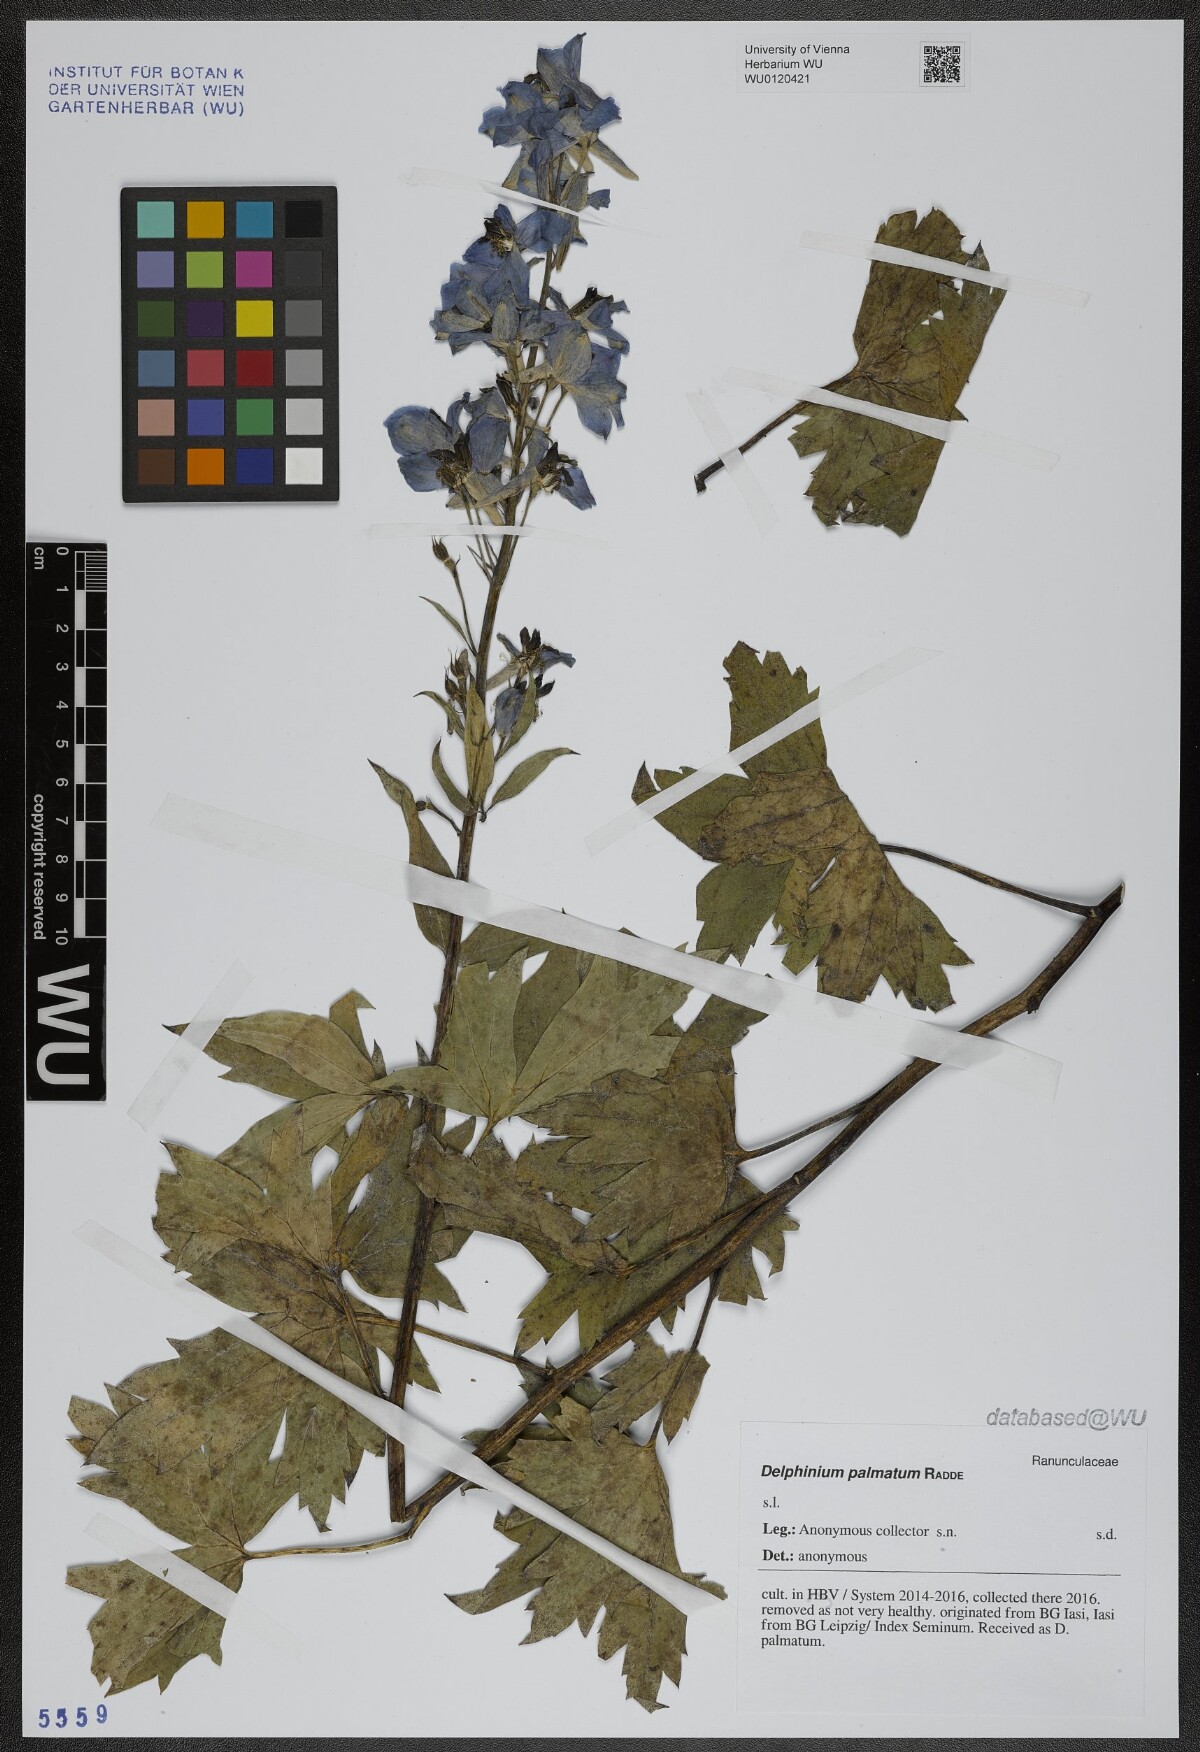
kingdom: Plantae
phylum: Tracheophyta
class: Magnoliopsida
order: Ranunculales
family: Ranunculaceae
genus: Delphinium
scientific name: Delphinium palmatum
